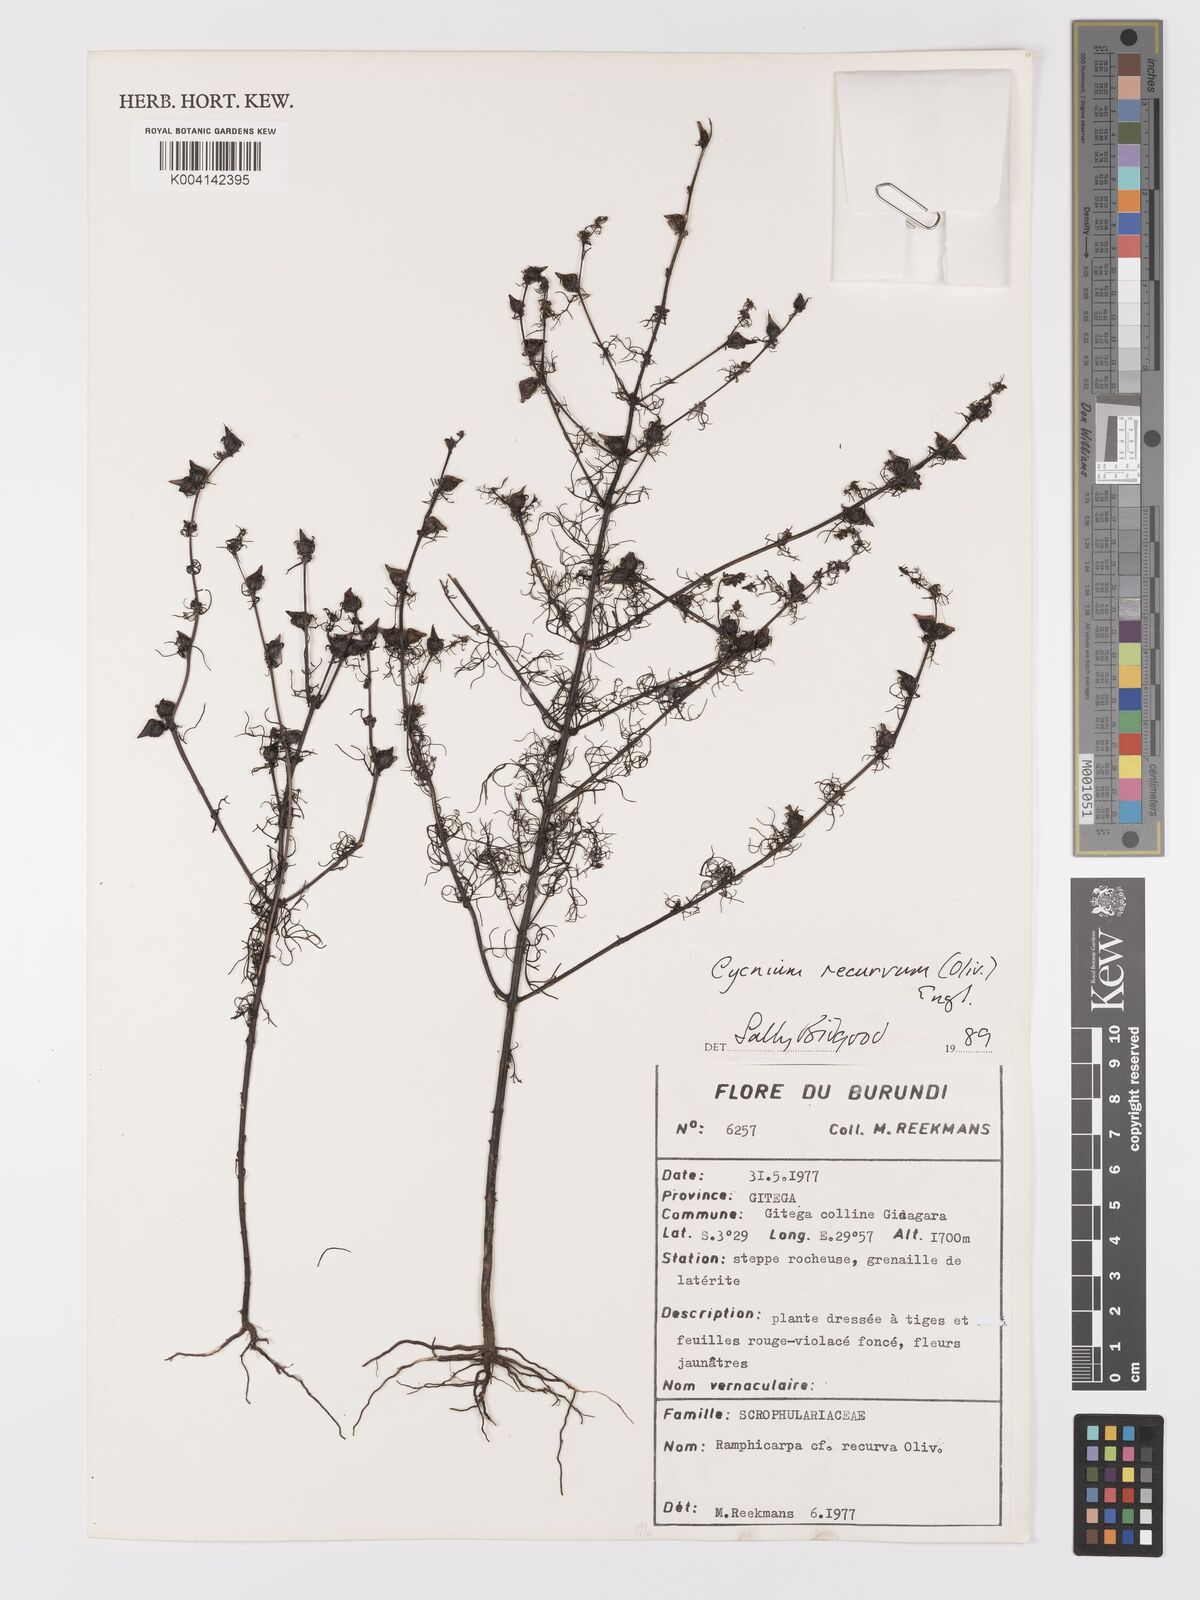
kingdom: Plantae
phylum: Tracheophyta
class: Magnoliopsida
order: Lamiales
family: Orobanchaceae
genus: Cycnium
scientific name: Cycnium recurvum
